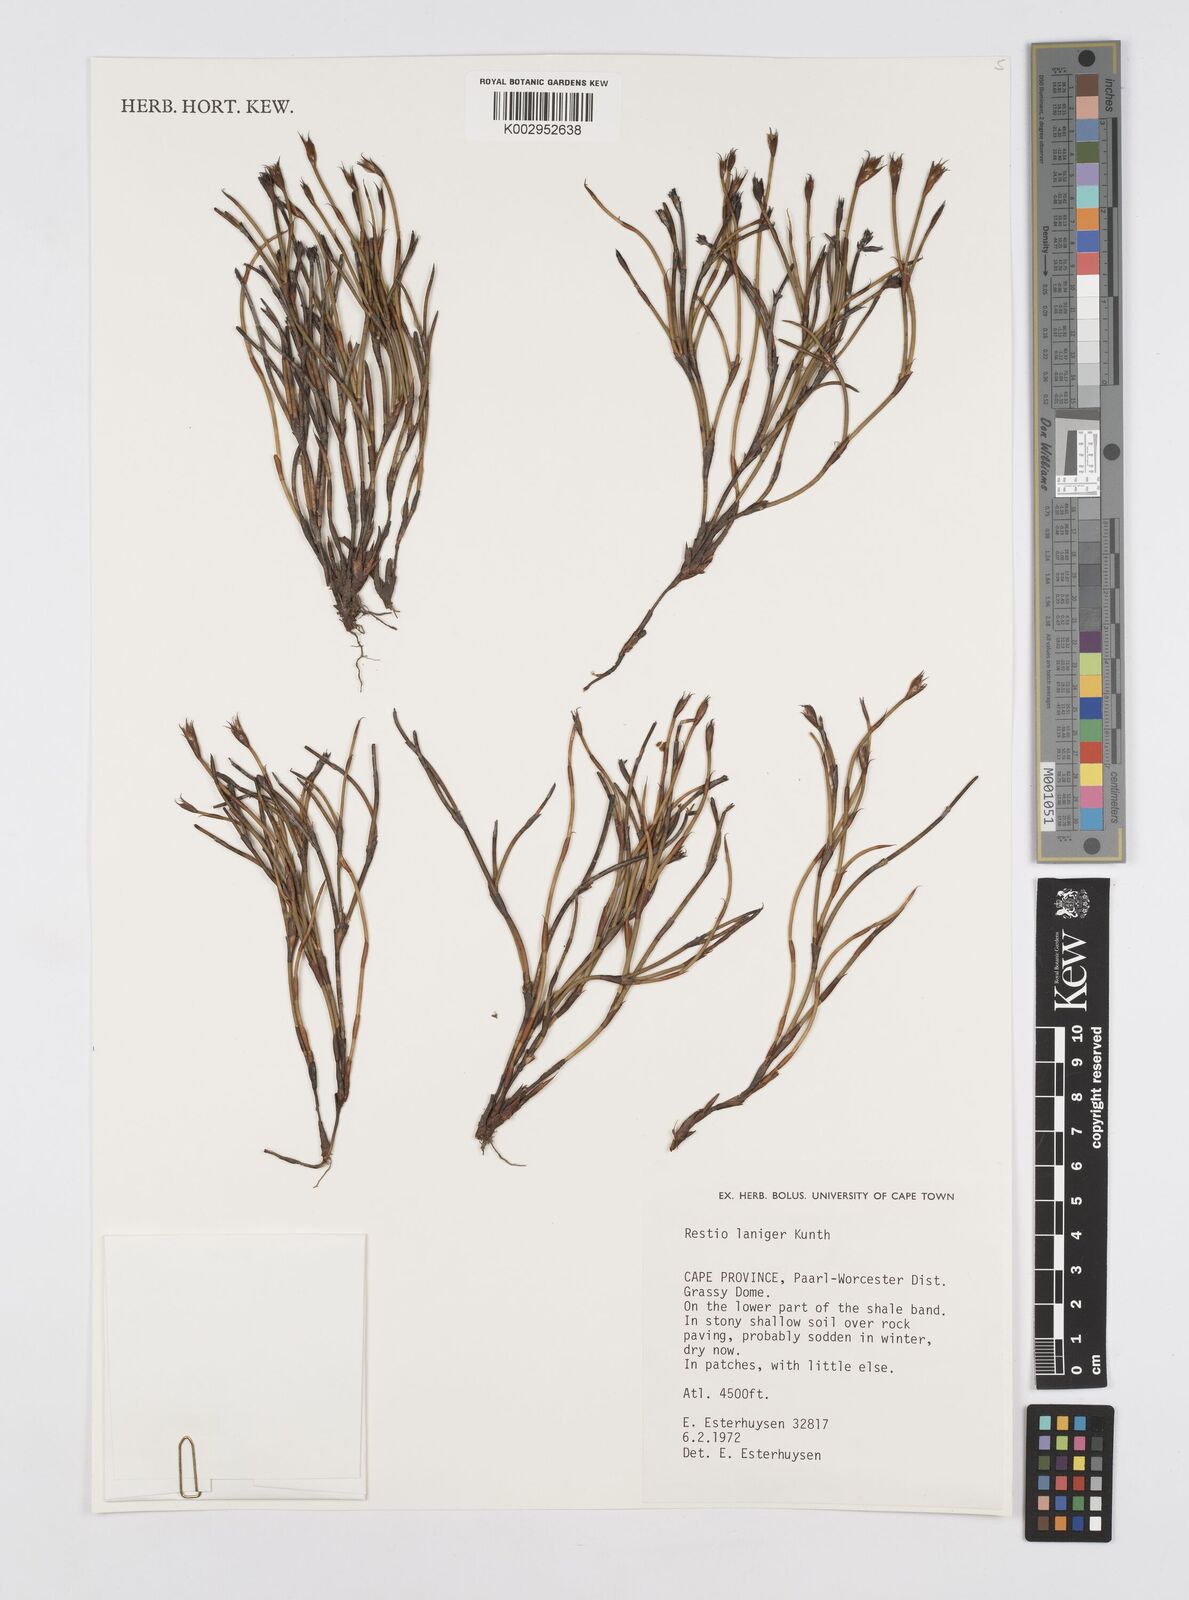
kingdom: Plantae
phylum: Tracheophyta
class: Liliopsida
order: Poales
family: Restionaceae
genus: Restio
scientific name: Restio laniger
